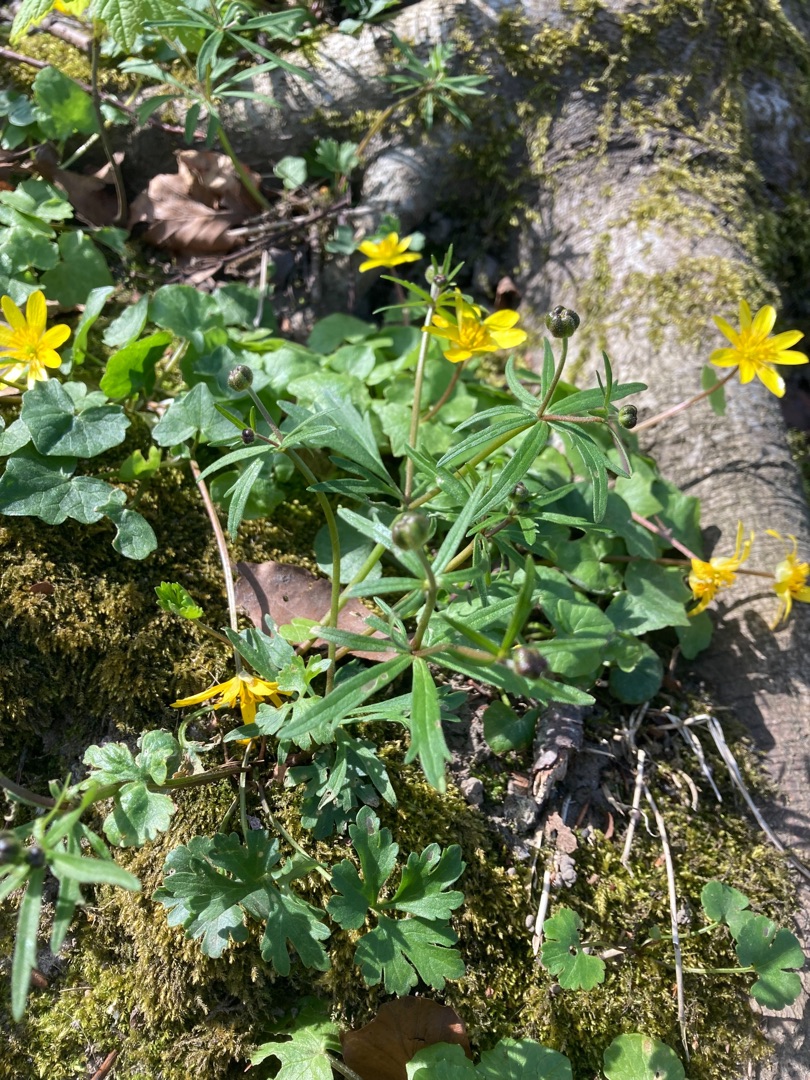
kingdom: Plantae
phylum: Tracheophyta
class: Magnoliopsida
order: Ranunculales
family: Ranunculaceae
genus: Ranunculus
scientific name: Ranunculus auricomus
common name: Nyrebladet ranunkel
